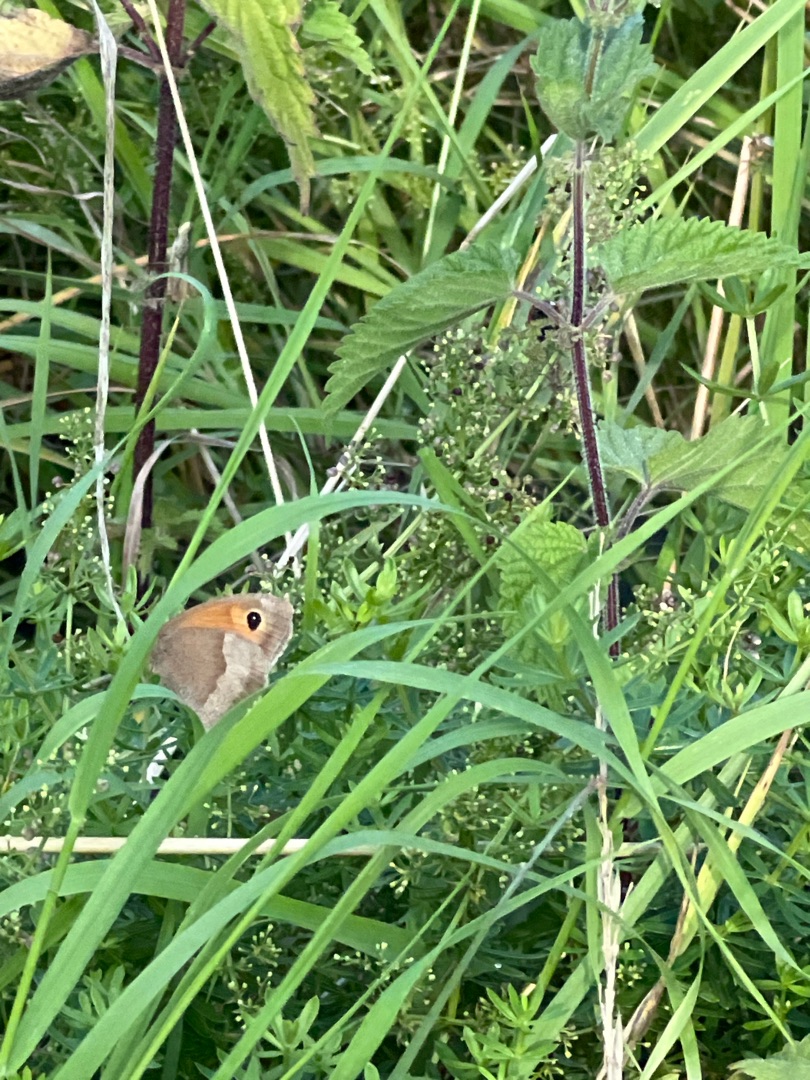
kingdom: Animalia
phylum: Arthropoda
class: Insecta
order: Lepidoptera
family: Nymphalidae
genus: Maniola
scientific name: Maniola jurtina
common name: Græsrandøje
